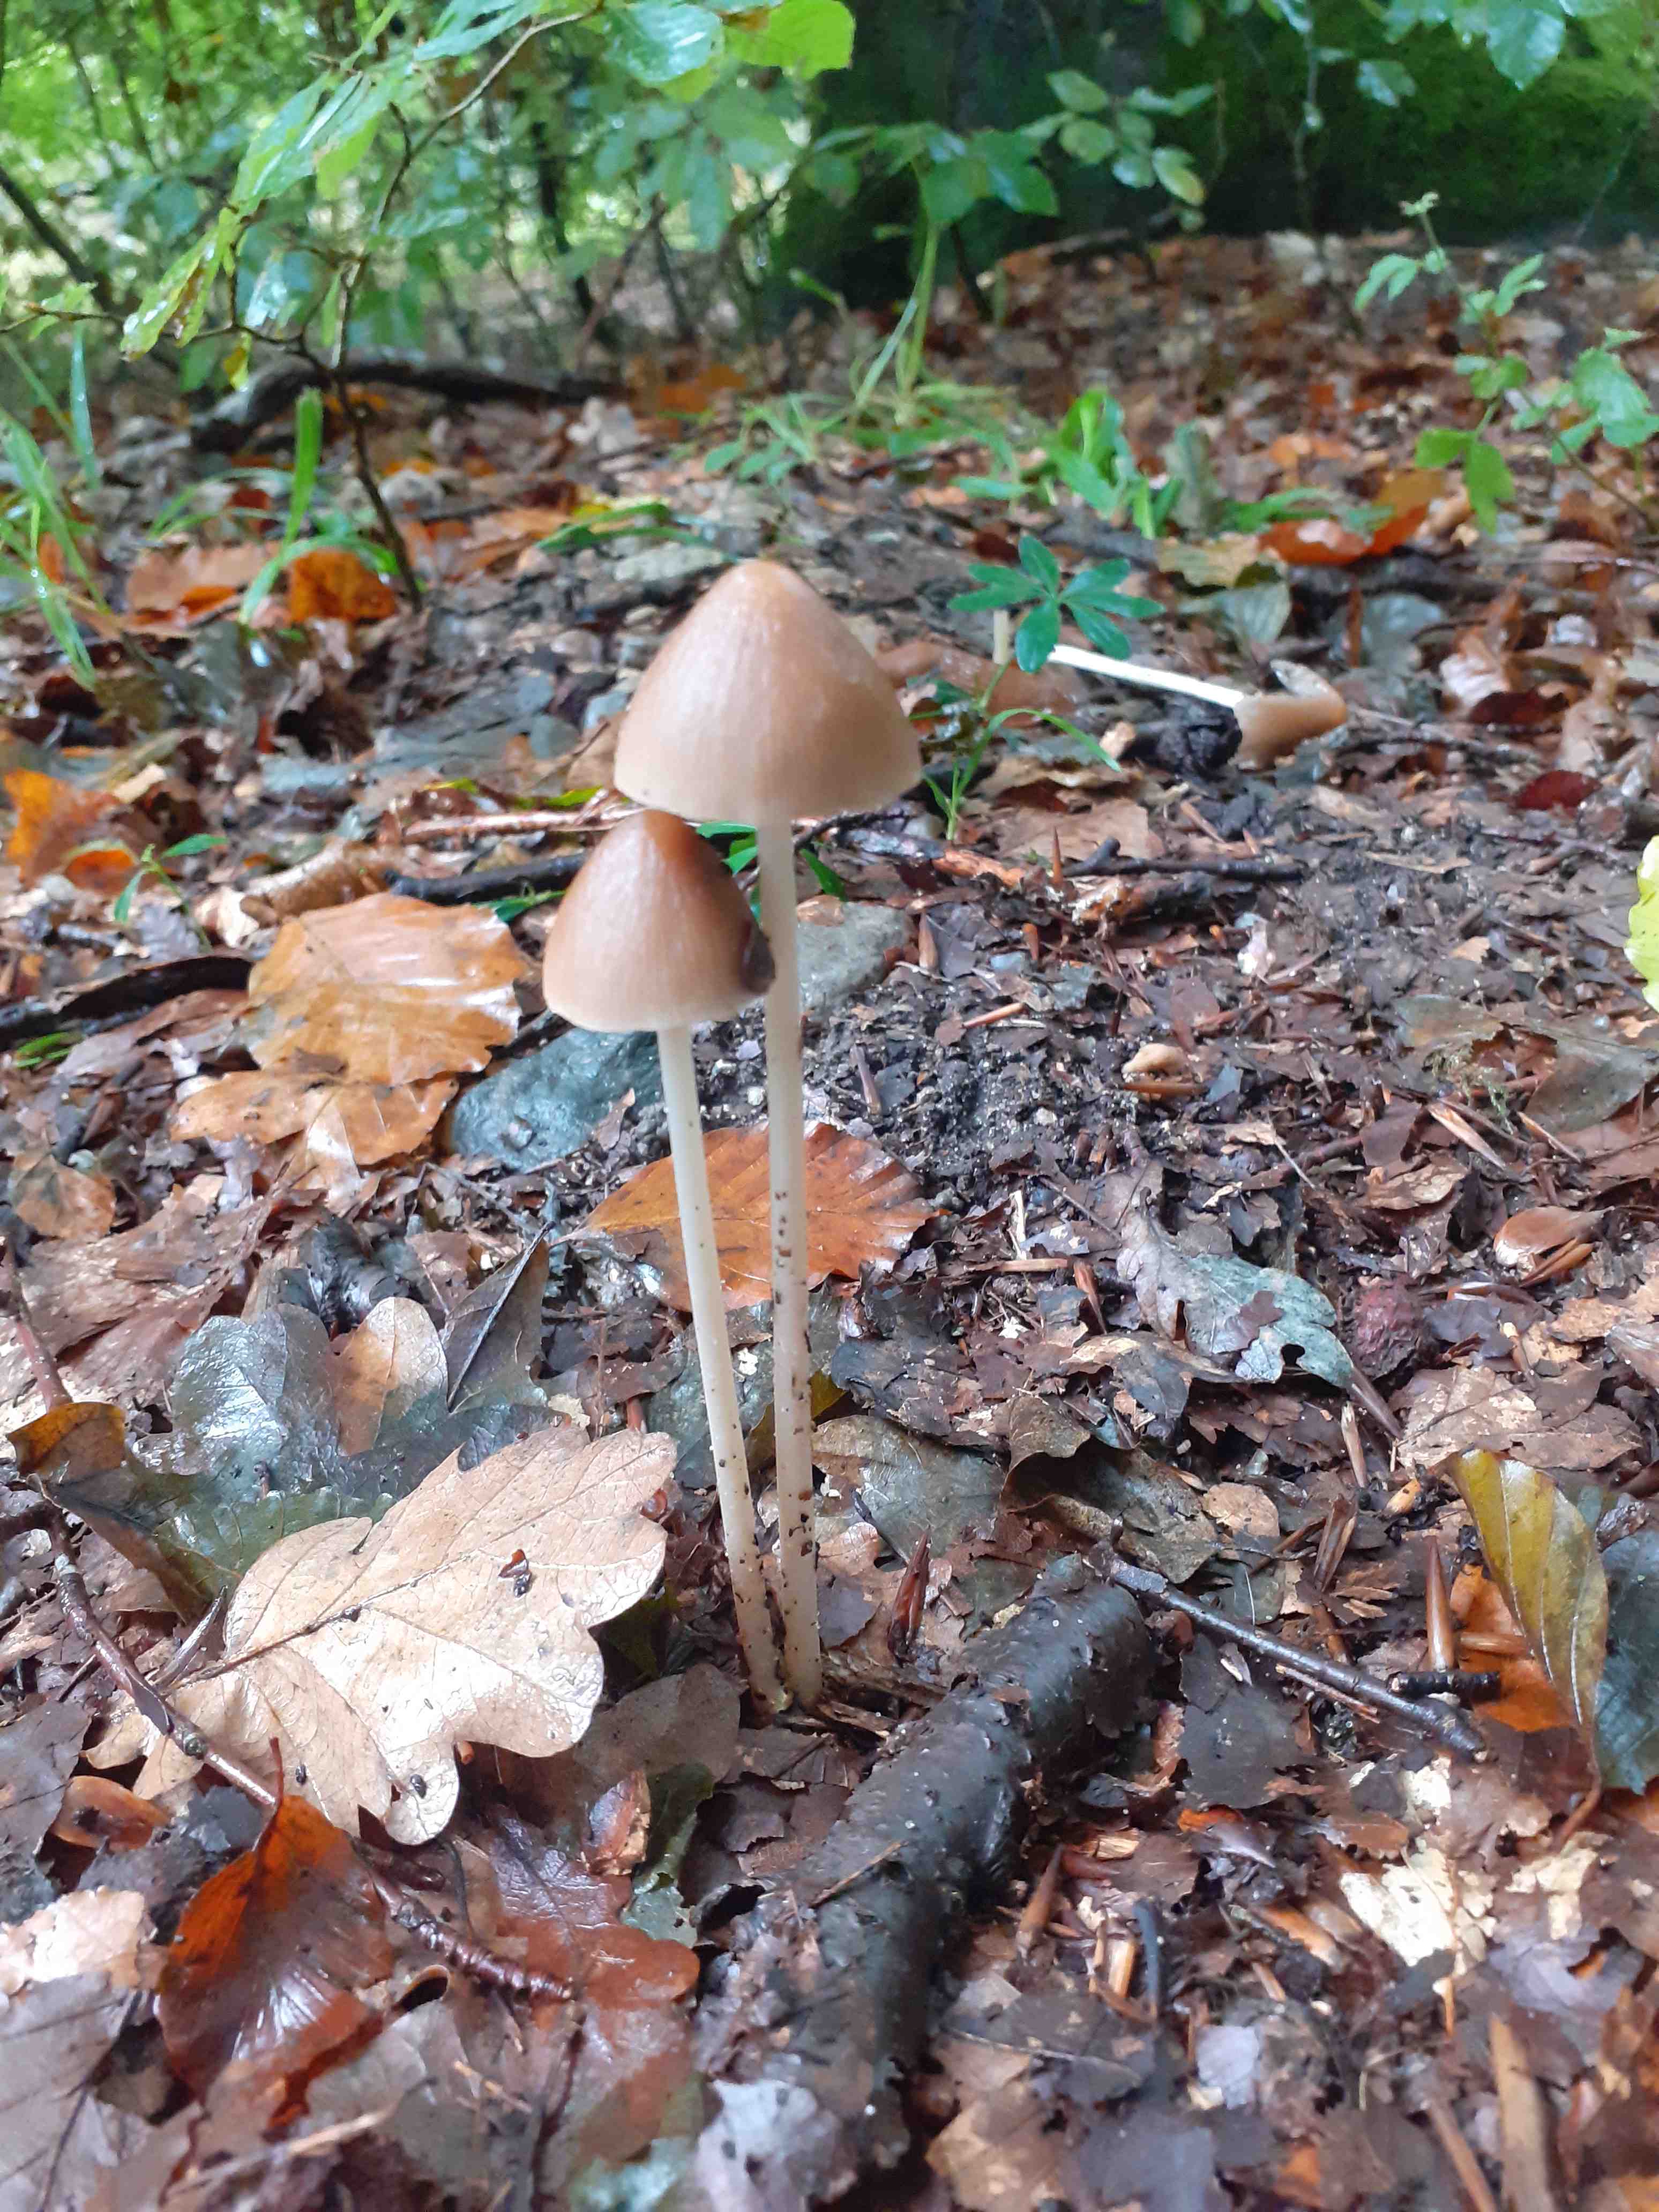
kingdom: Fungi
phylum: Basidiomycota
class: Agaricomycetes
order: Agaricales
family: Psathyrellaceae
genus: Parasola
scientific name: Parasola conopilea
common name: kegle-hjulhat
